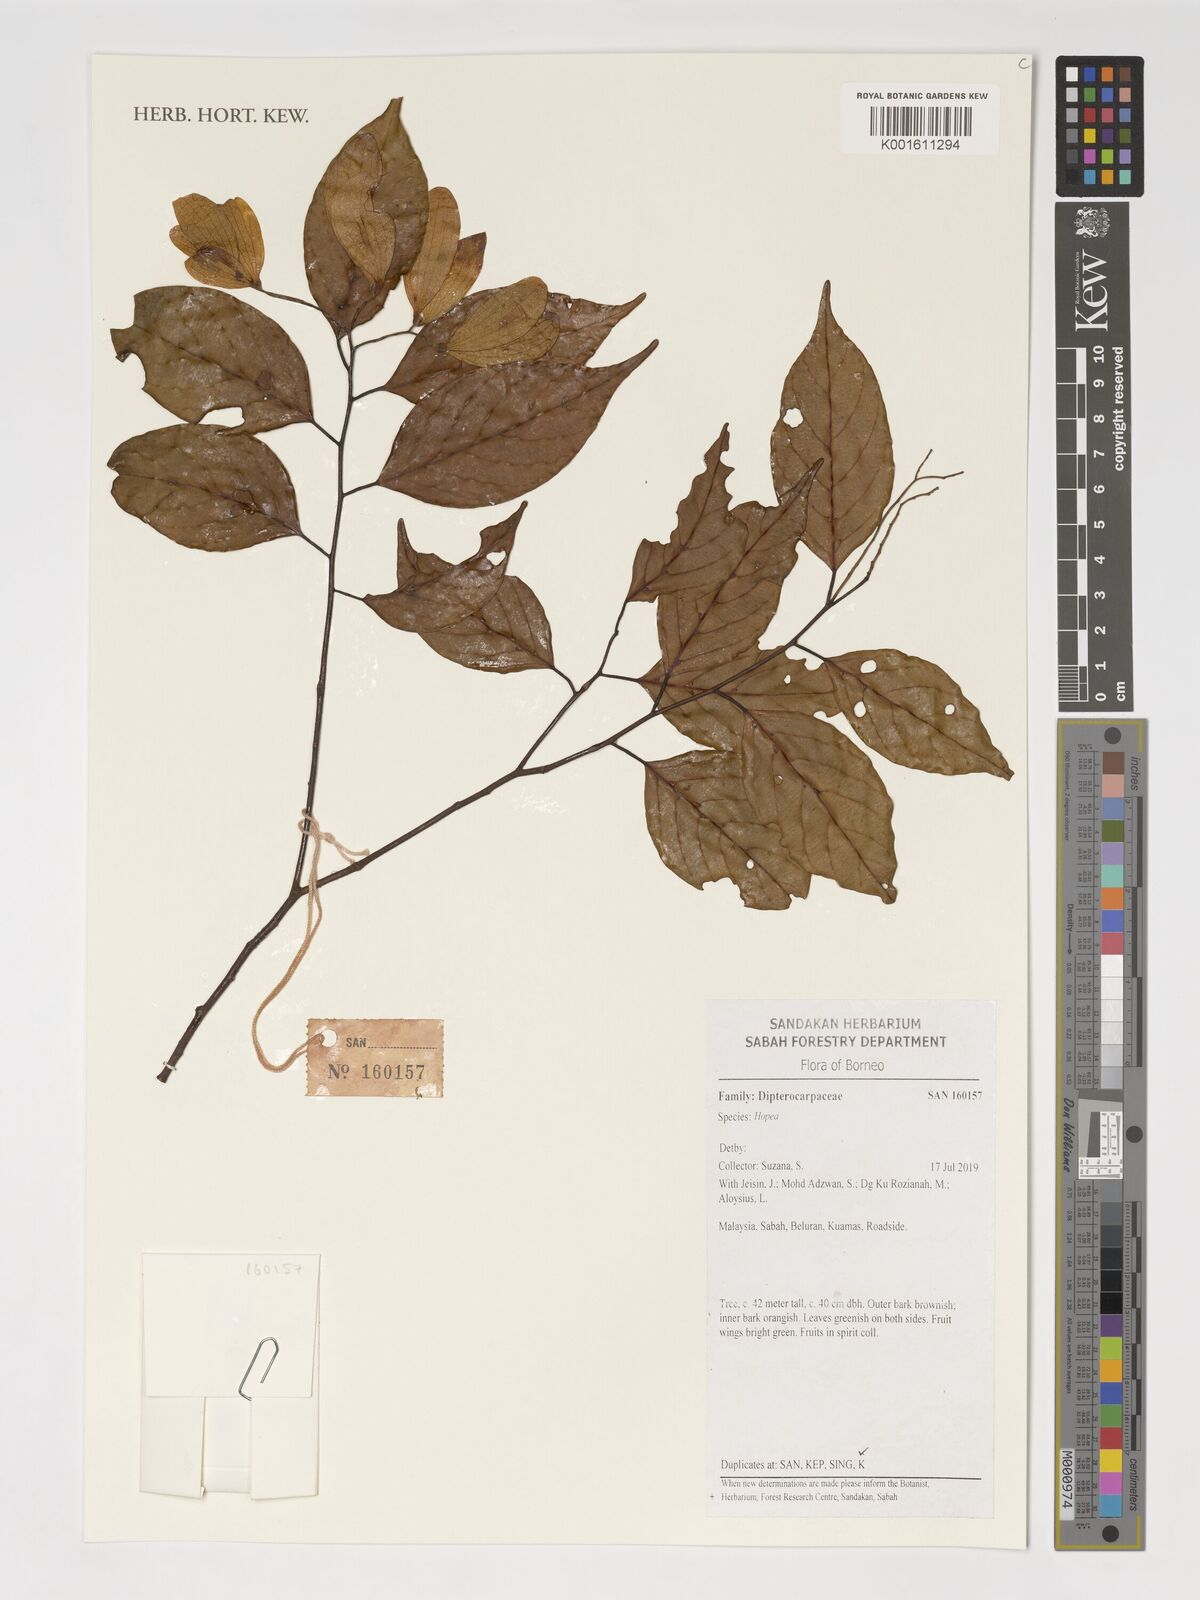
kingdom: Plantae
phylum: Tracheophyta
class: Magnoliopsida
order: Malvales
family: Dipterocarpaceae
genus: Hopea
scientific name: Hopea
